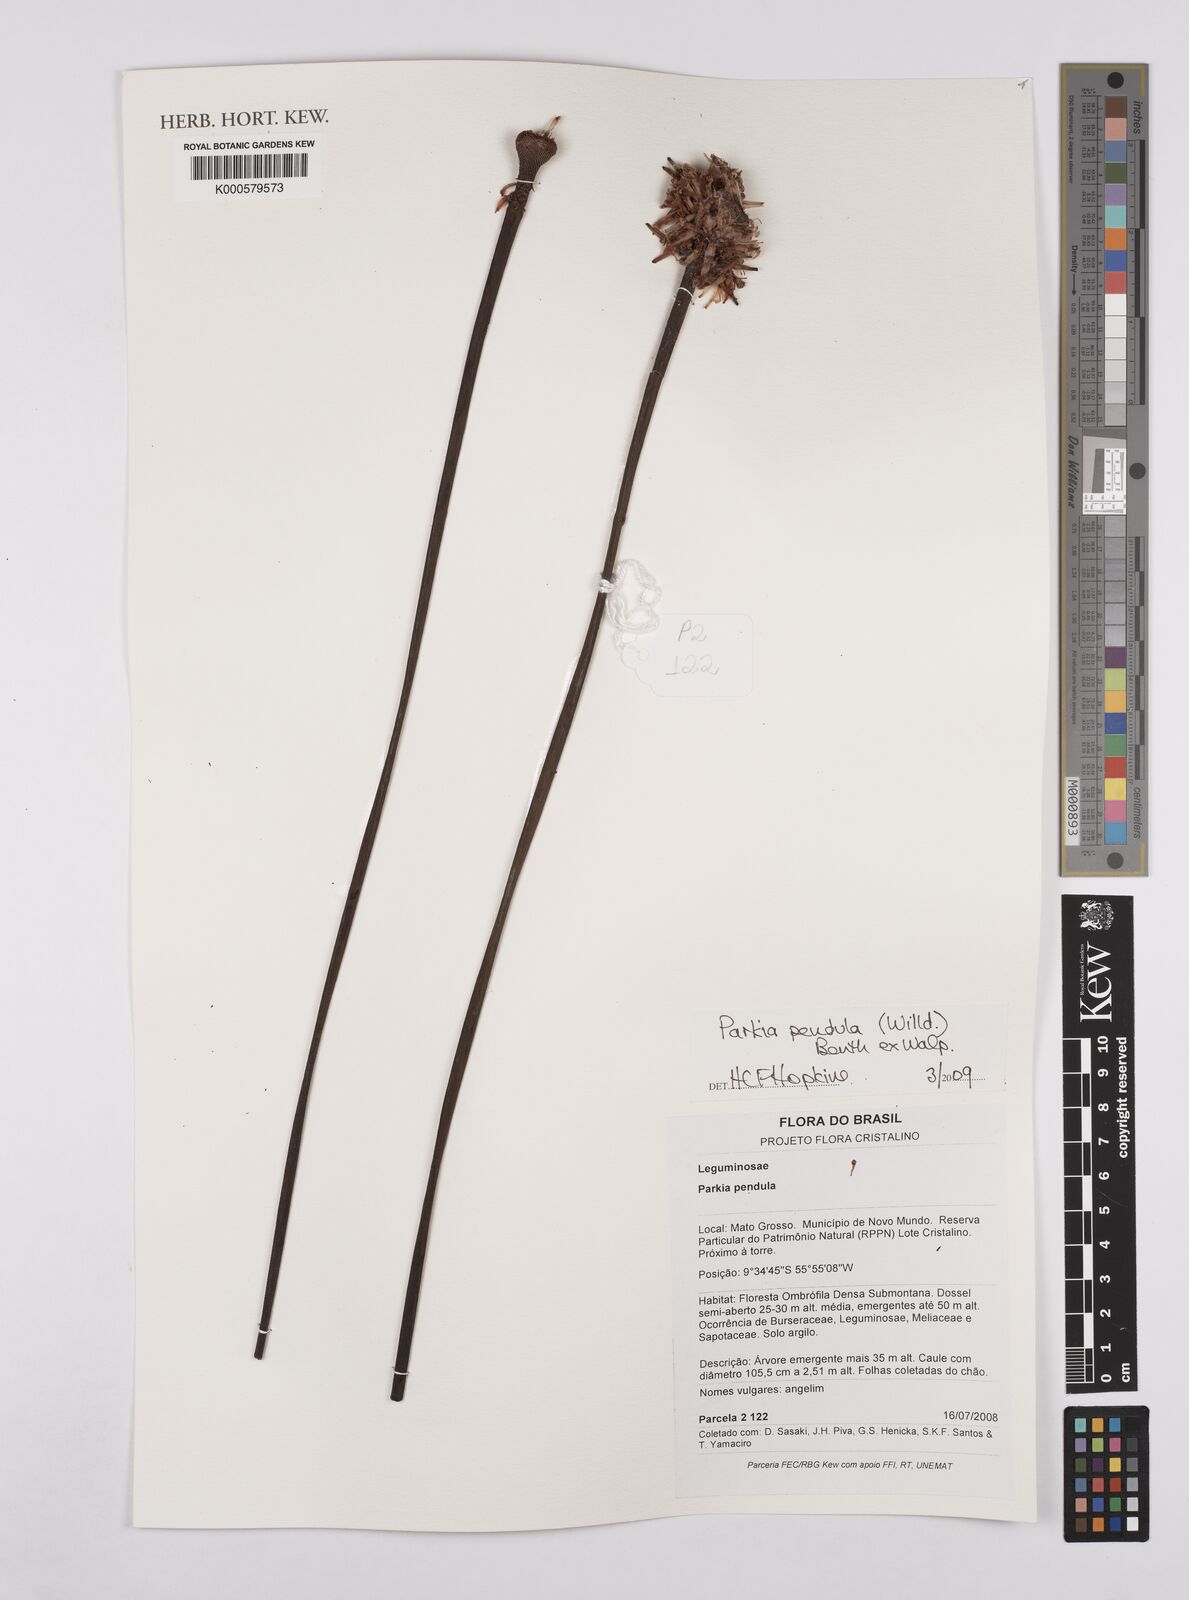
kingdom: Plantae
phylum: Tracheophyta
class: Magnoliopsida
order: Fabales
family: Fabaceae
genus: Parkia
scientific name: Parkia pendula
